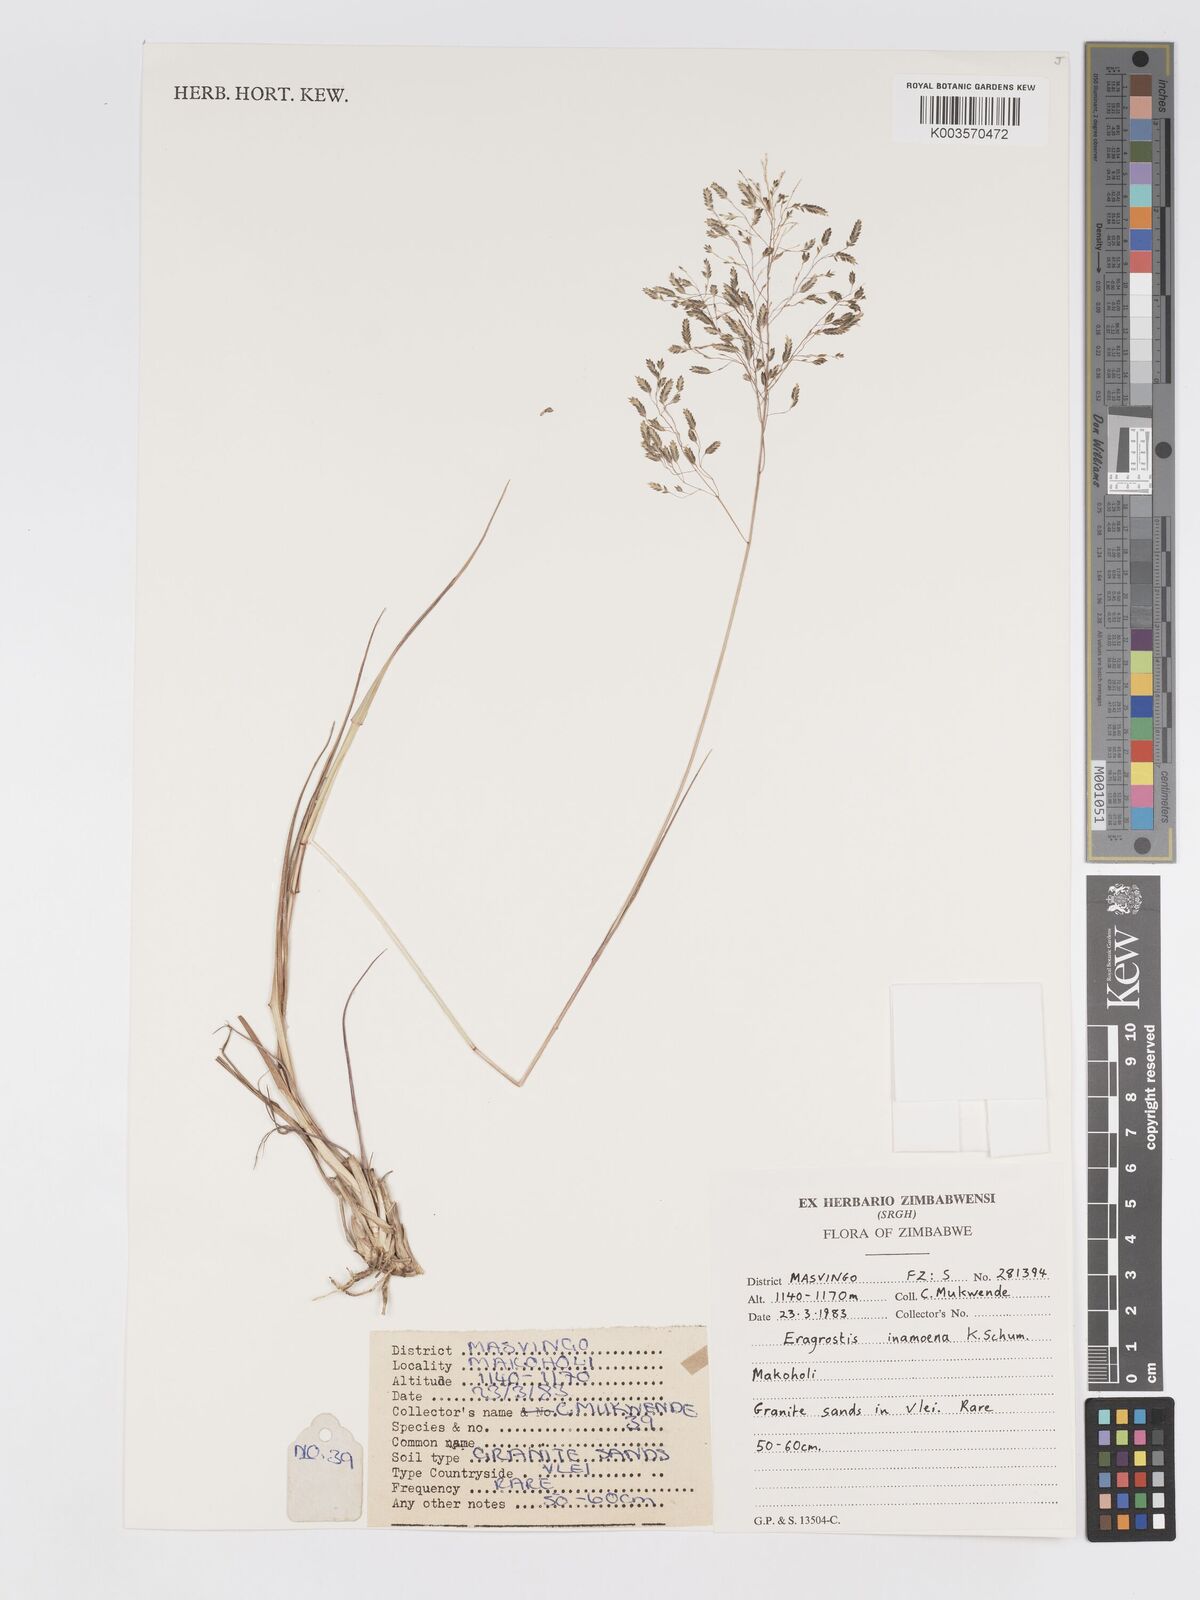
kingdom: Plantae
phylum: Tracheophyta
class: Liliopsida
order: Poales
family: Poaceae
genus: Eragrostis
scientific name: Eragrostis inamoena
